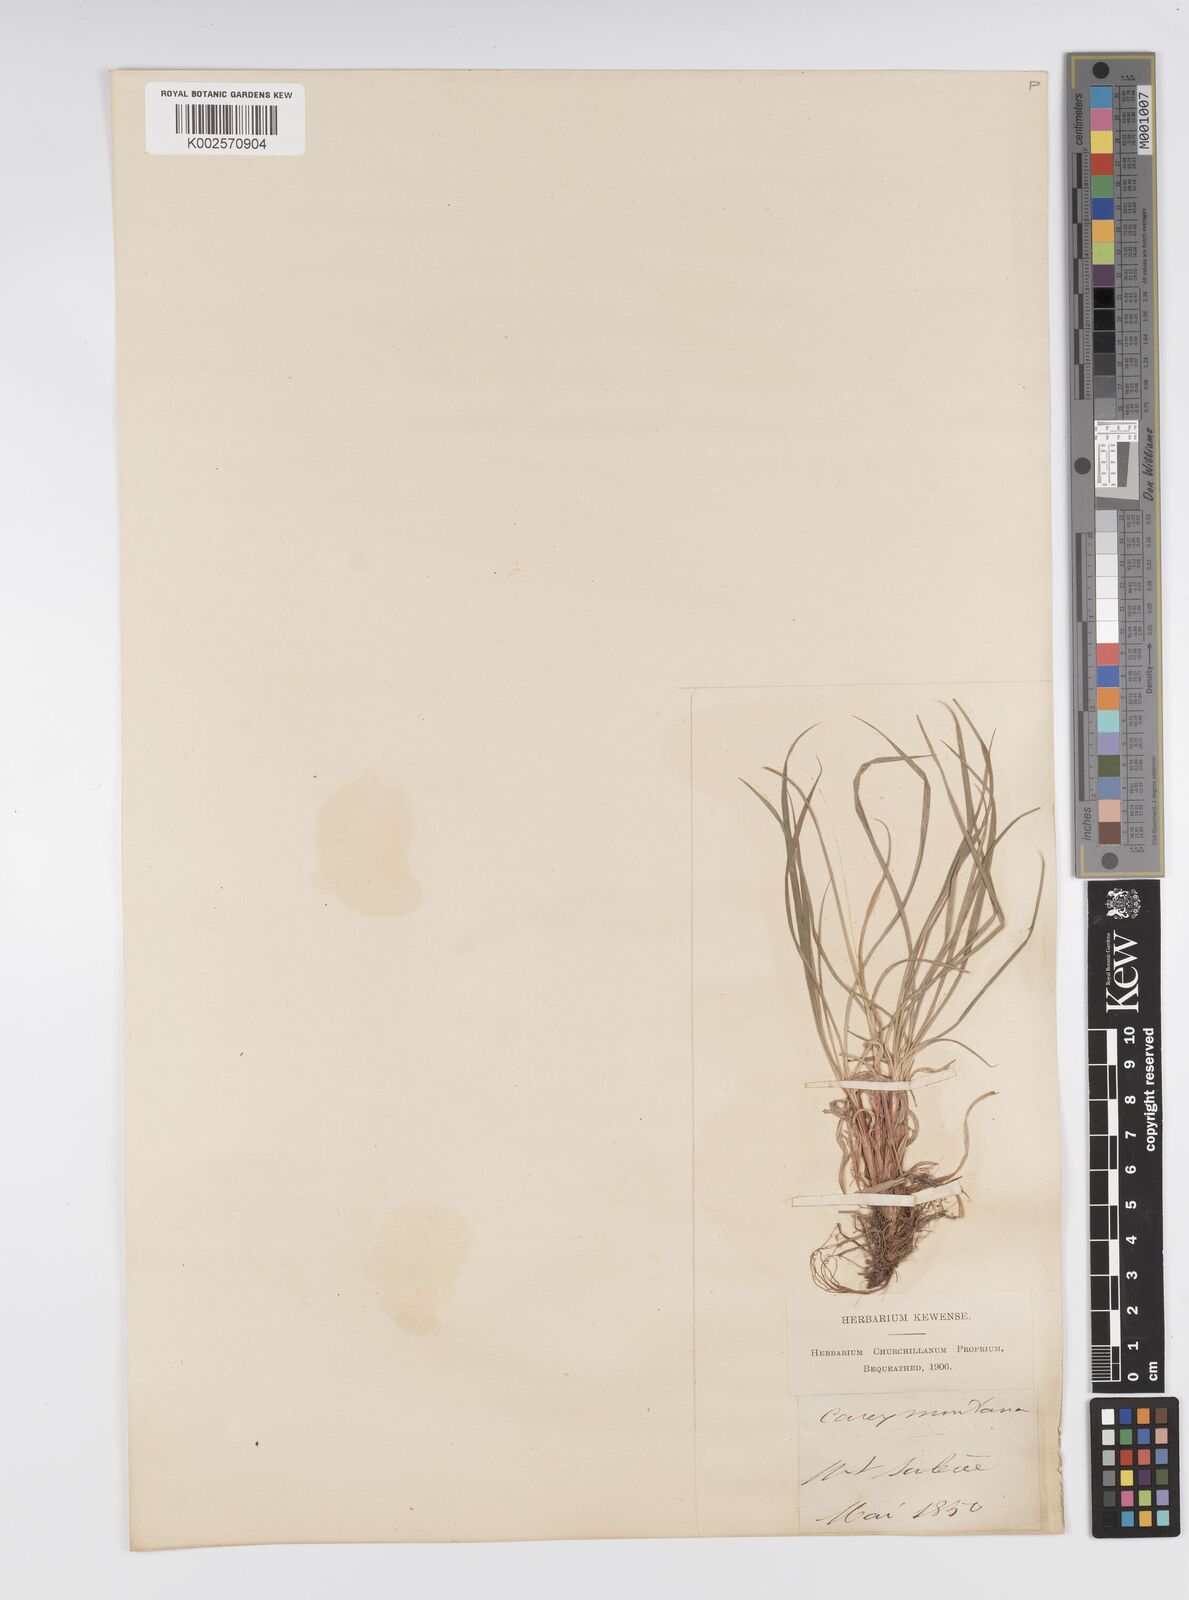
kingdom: Plantae
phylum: Tracheophyta
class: Liliopsida
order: Poales
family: Cyperaceae
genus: Carex
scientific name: Carex montana
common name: Soft-leaved sedge
